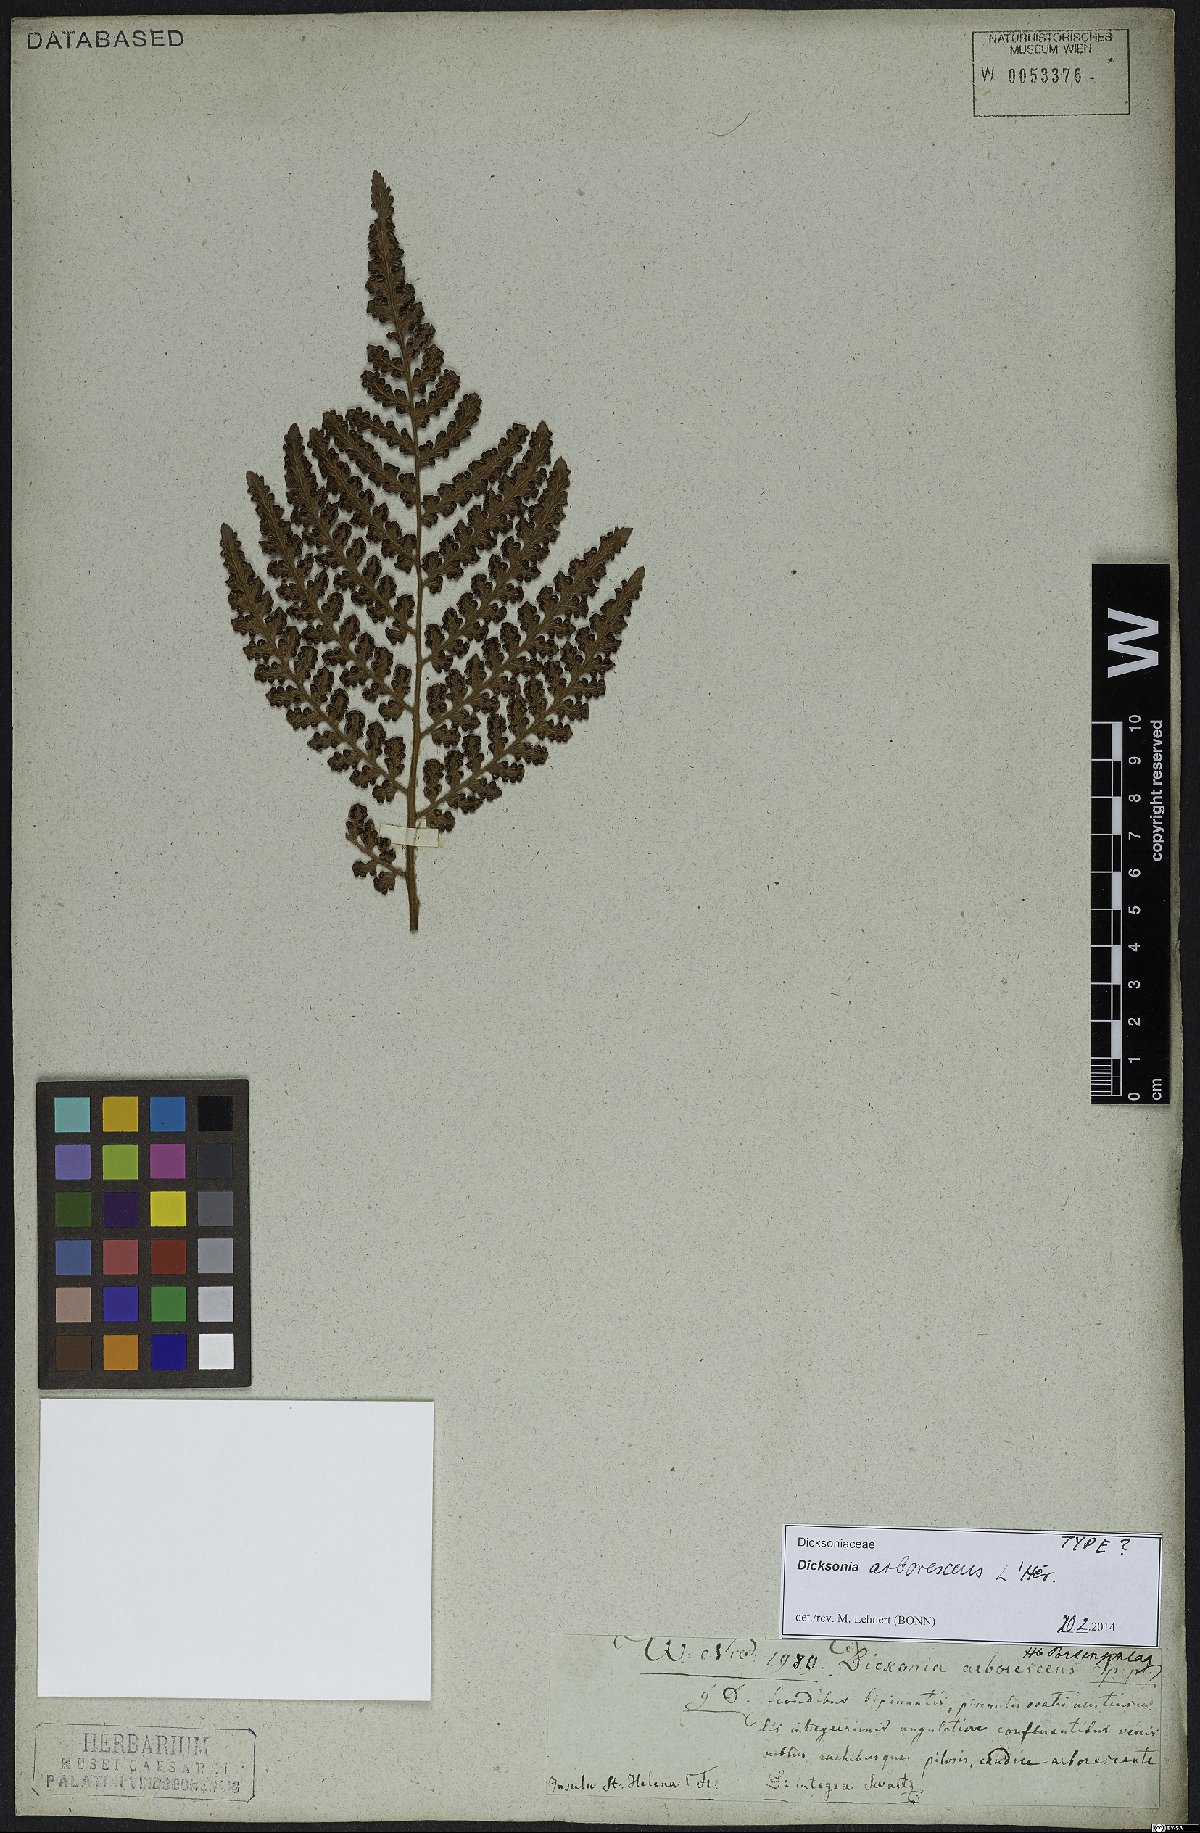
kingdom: Plantae
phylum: Tracheophyta
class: Polypodiopsida
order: Cyatheales
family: Dicksoniaceae
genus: Dicksonia
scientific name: Dicksonia arborescens
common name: St helena tree fern
